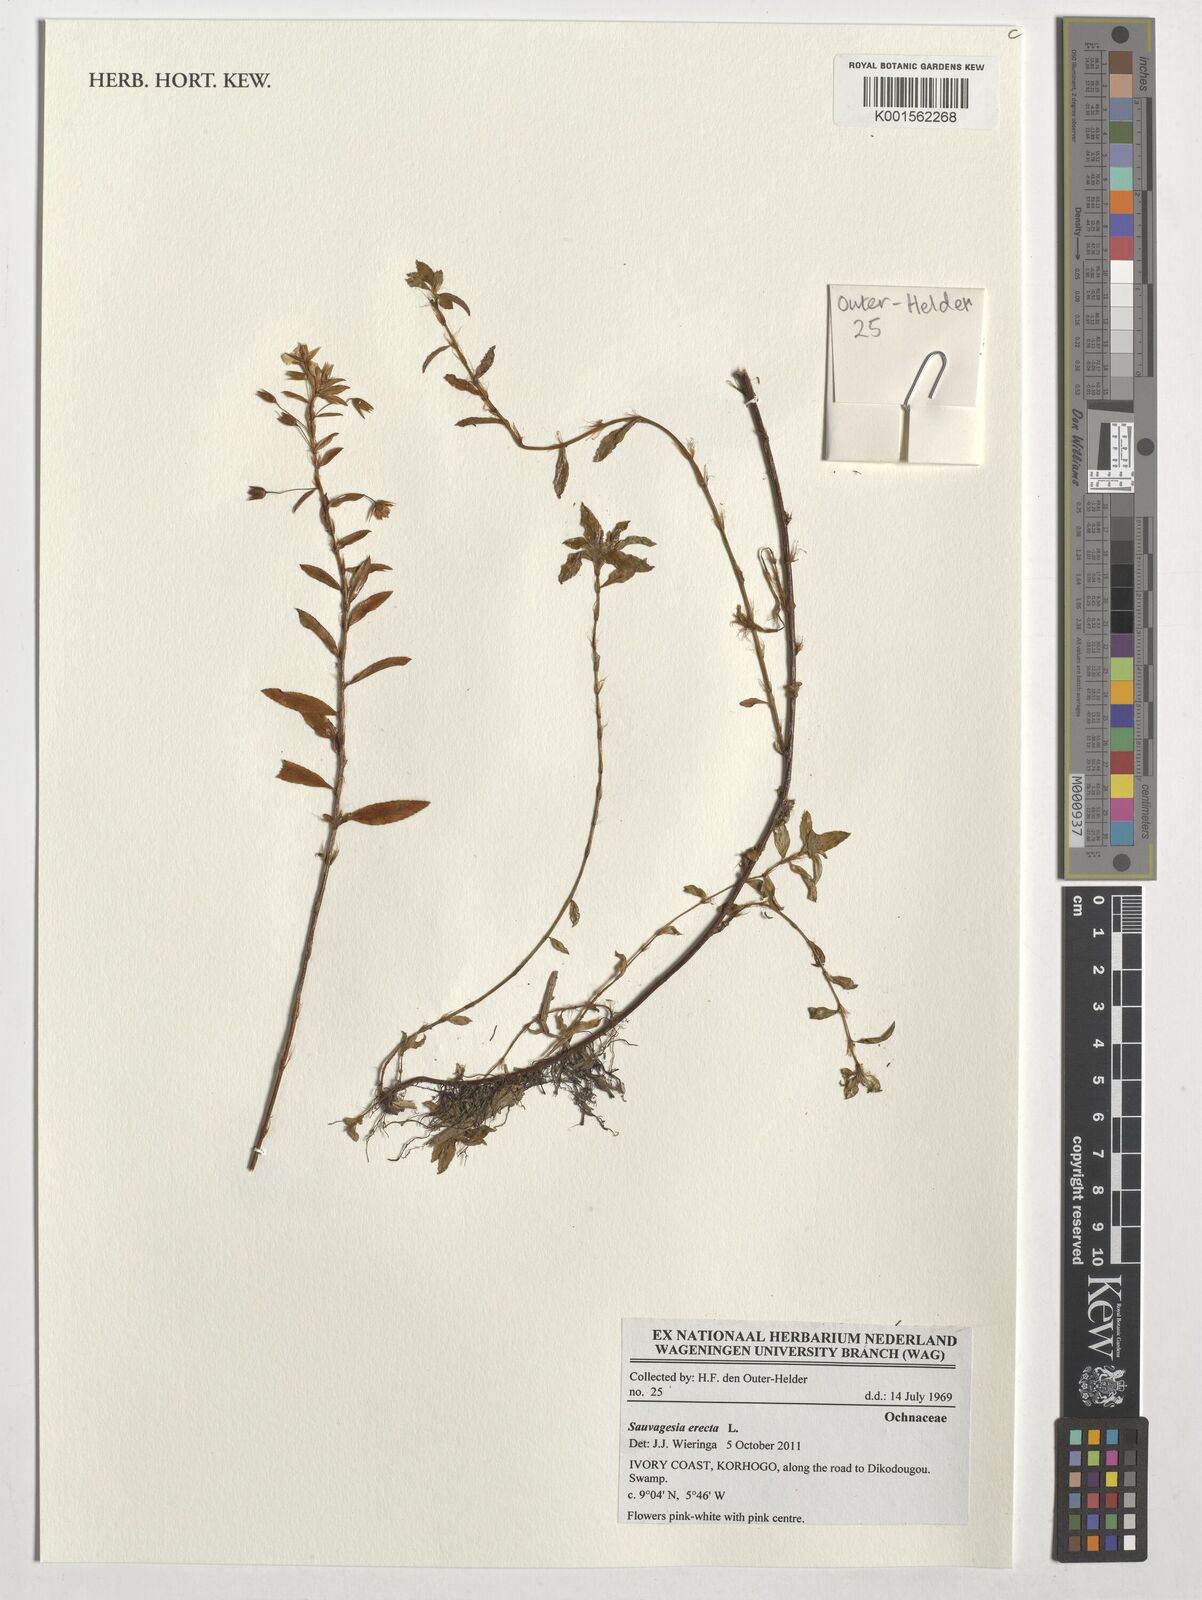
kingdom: Plantae
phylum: Tracheophyta
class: Magnoliopsida
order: Malpighiales
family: Ochnaceae
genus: Sauvagesia
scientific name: Sauvagesia erecta
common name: Creole tea
